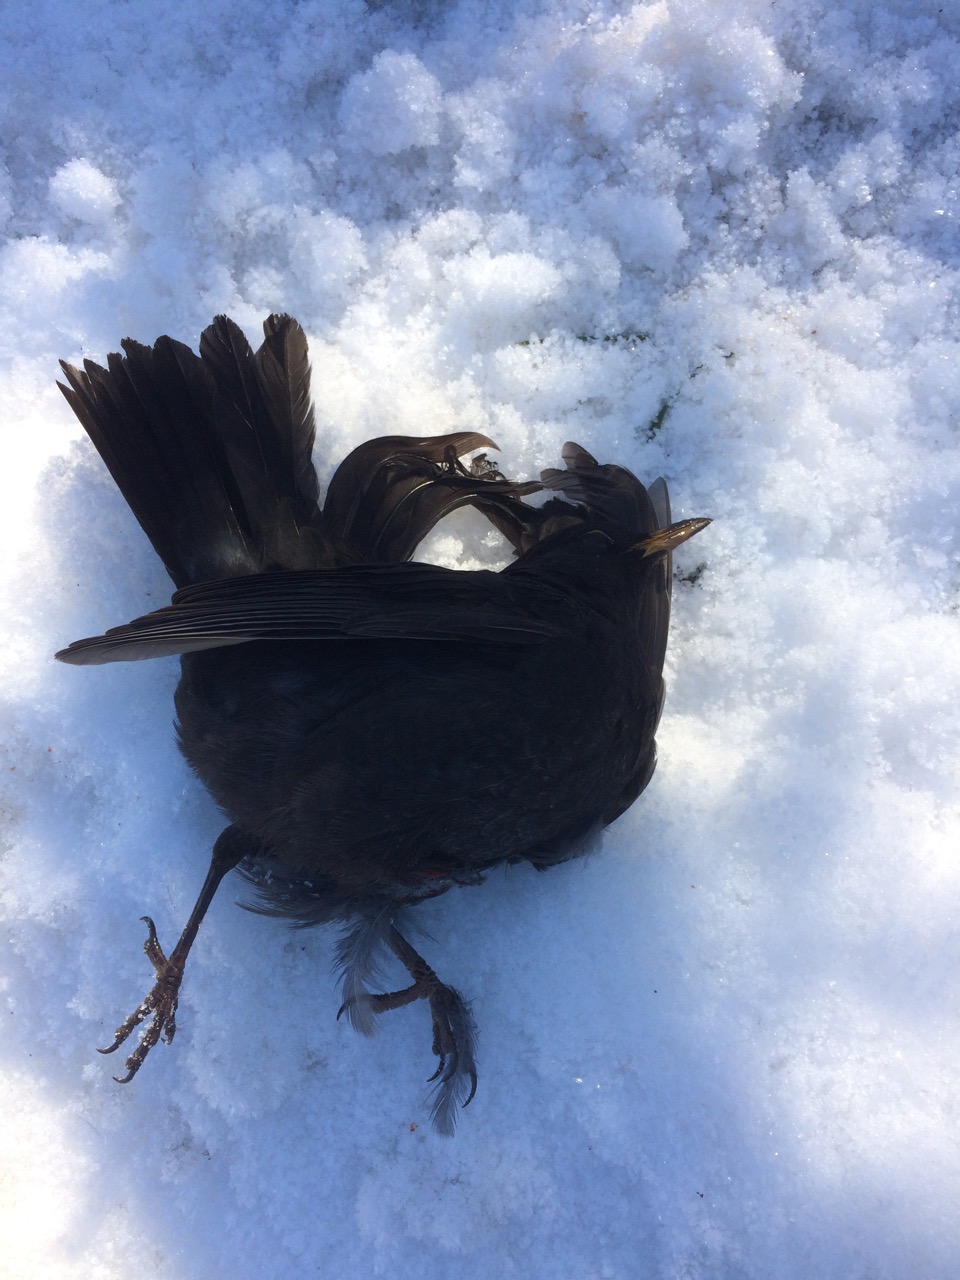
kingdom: Animalia
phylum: Chordata
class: Aves
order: Passeriformes
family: Turdidae
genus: Turdus
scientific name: Turdus merula
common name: Common blackbird
